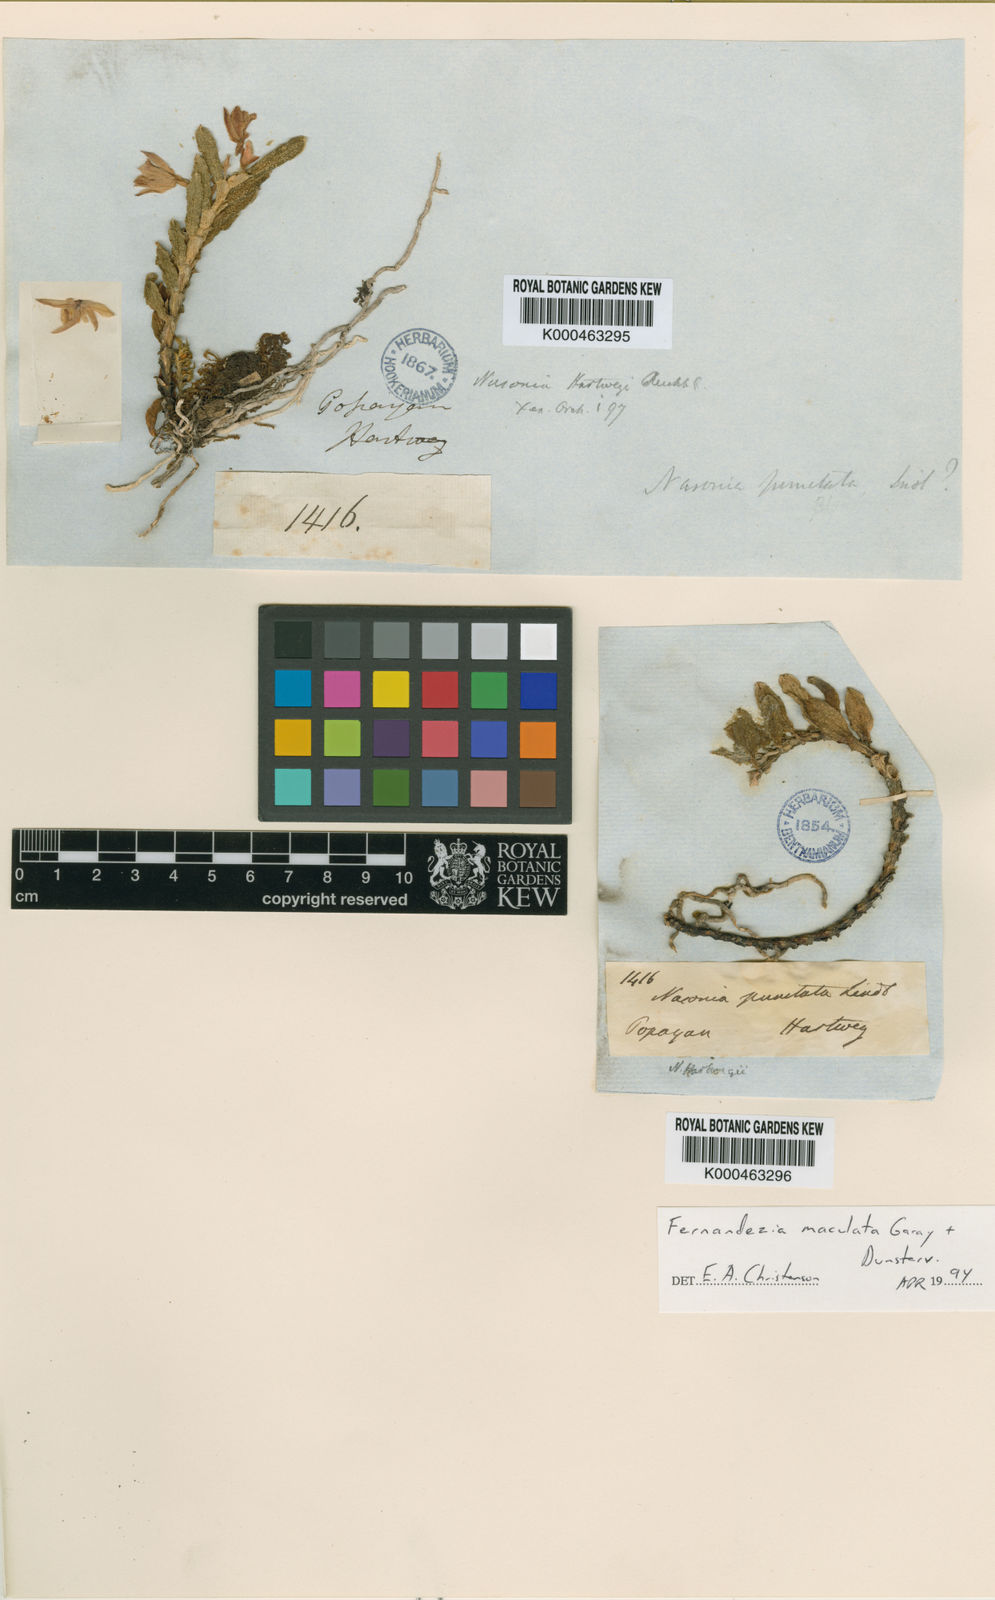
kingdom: Plantae
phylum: Tracheophyta
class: Liliopsida
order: Asparagales
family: Orchidaceae
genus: Fernandezia
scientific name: Fernandezia maculata
